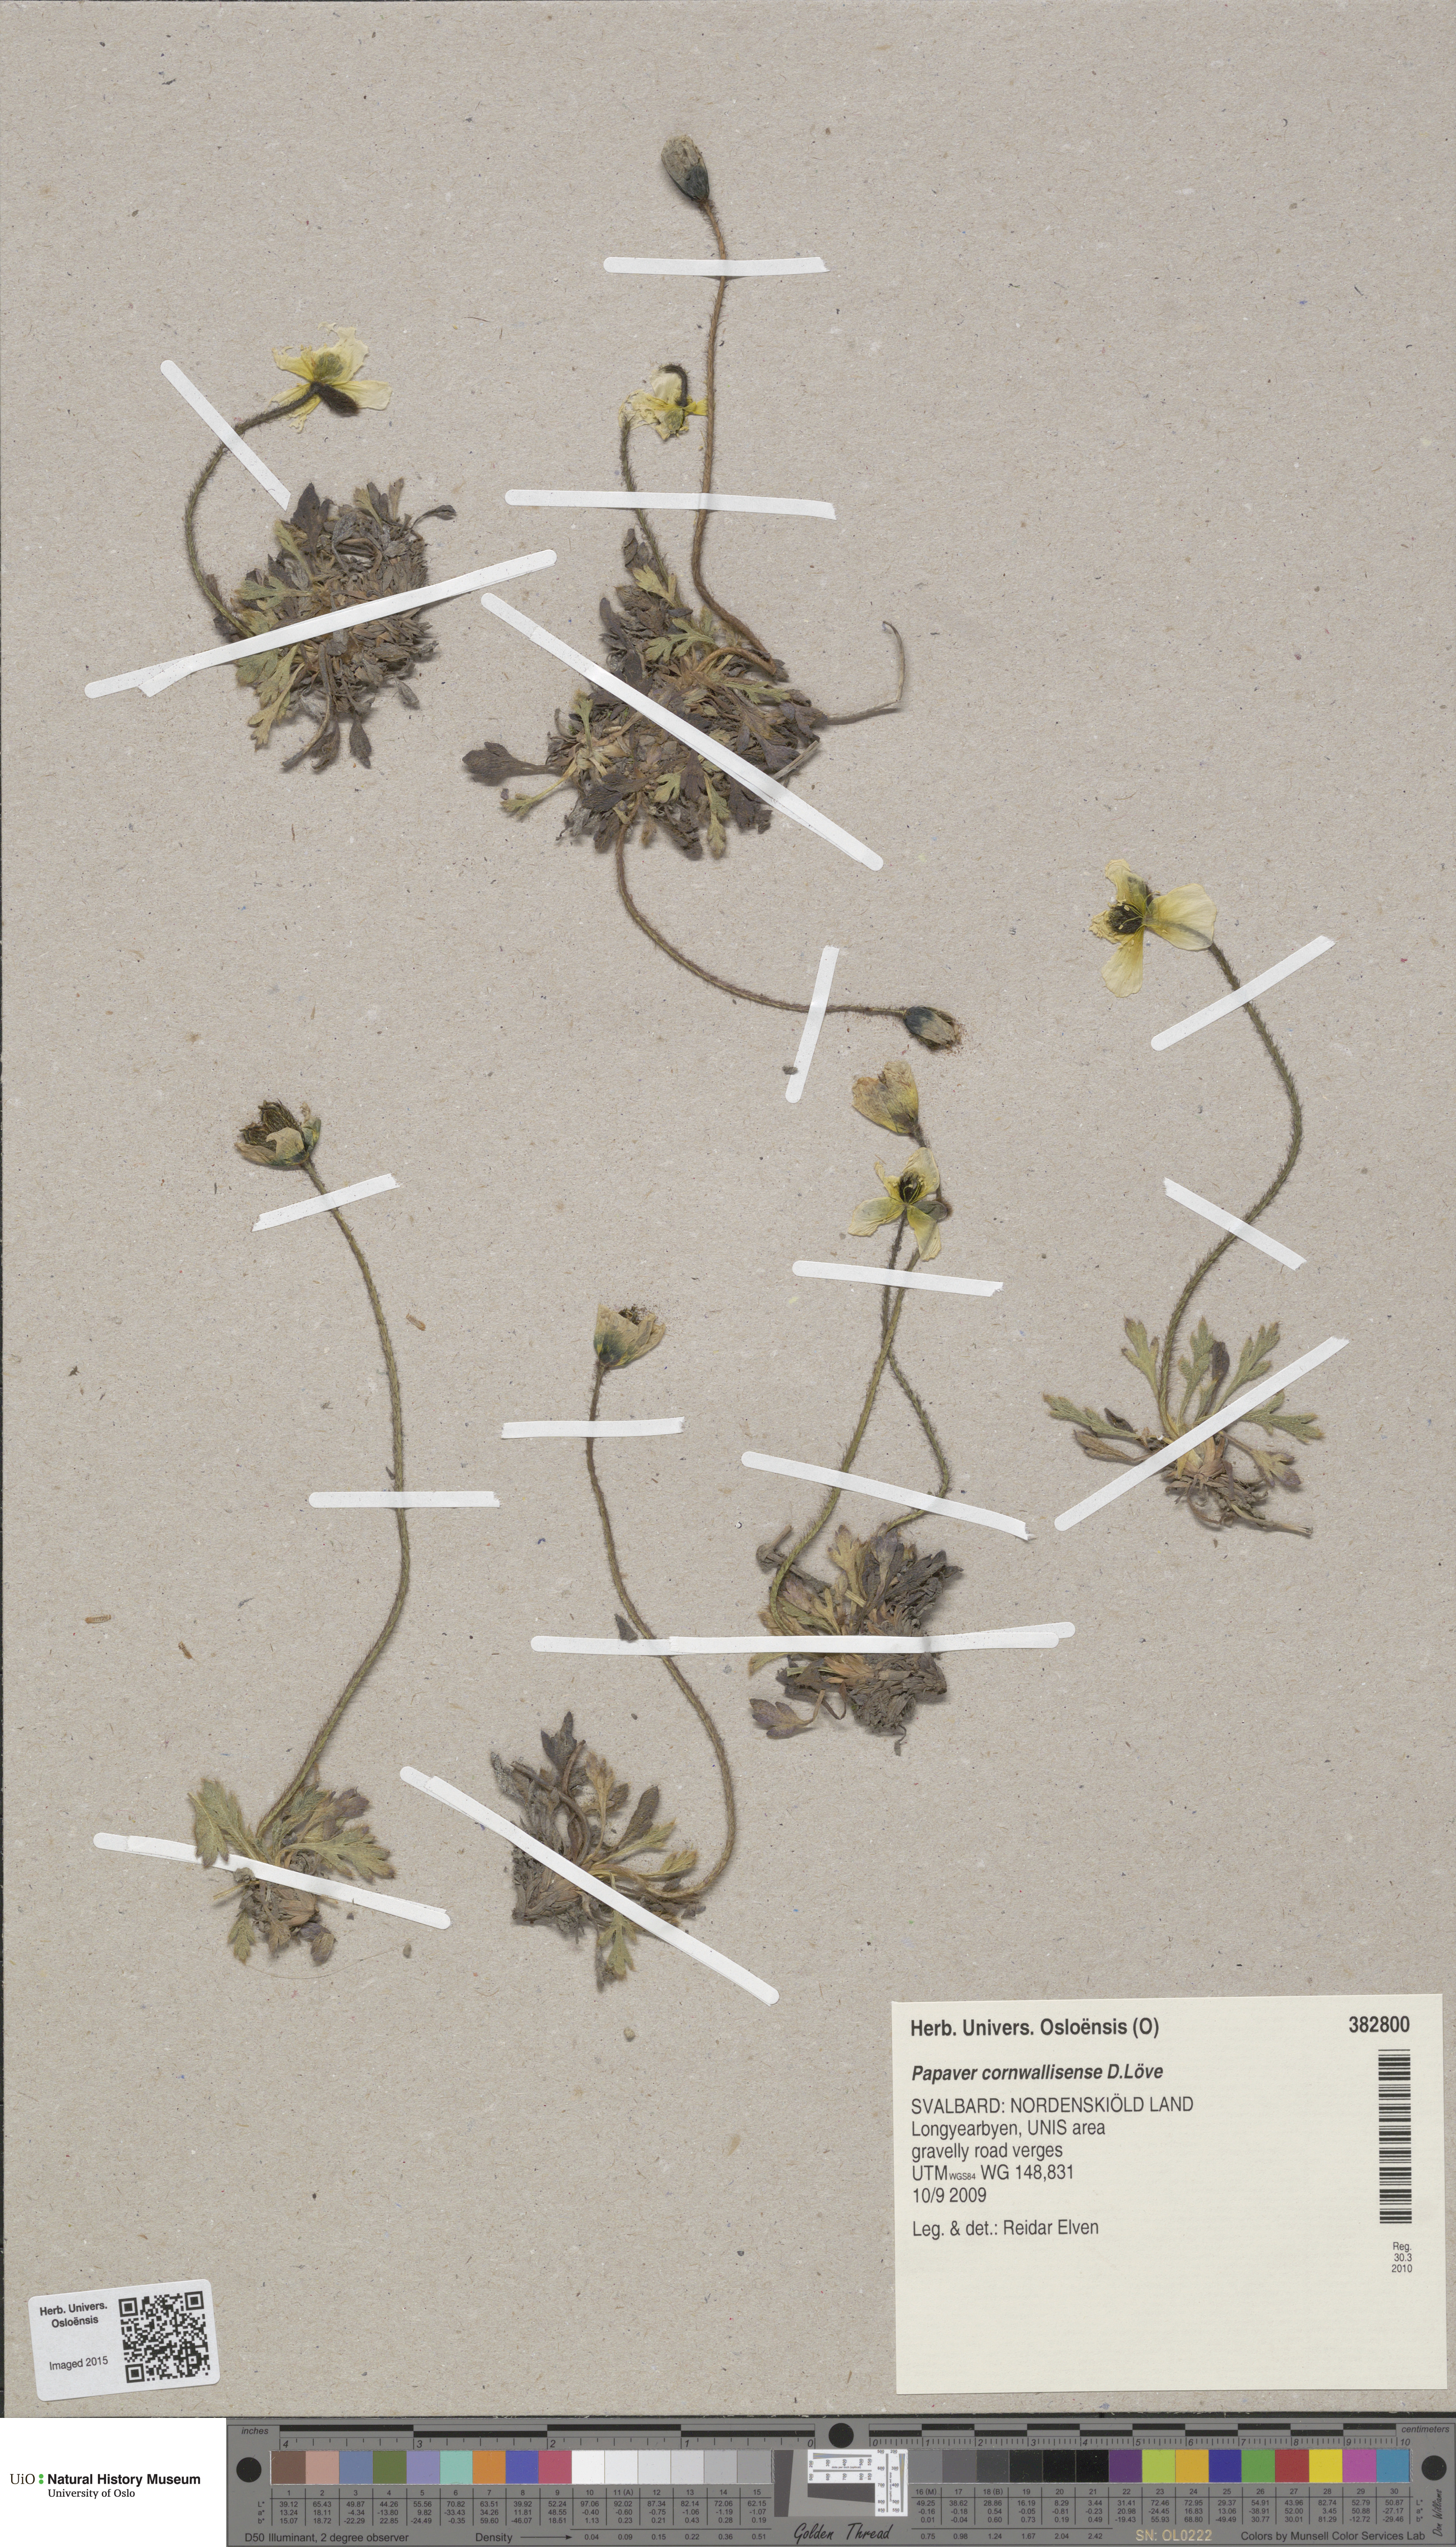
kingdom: Plantae
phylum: Tracheophyta
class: Magnoliopsida
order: Ranunculales
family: Papaveraceae
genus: Papaver
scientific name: Papaver radicatum
